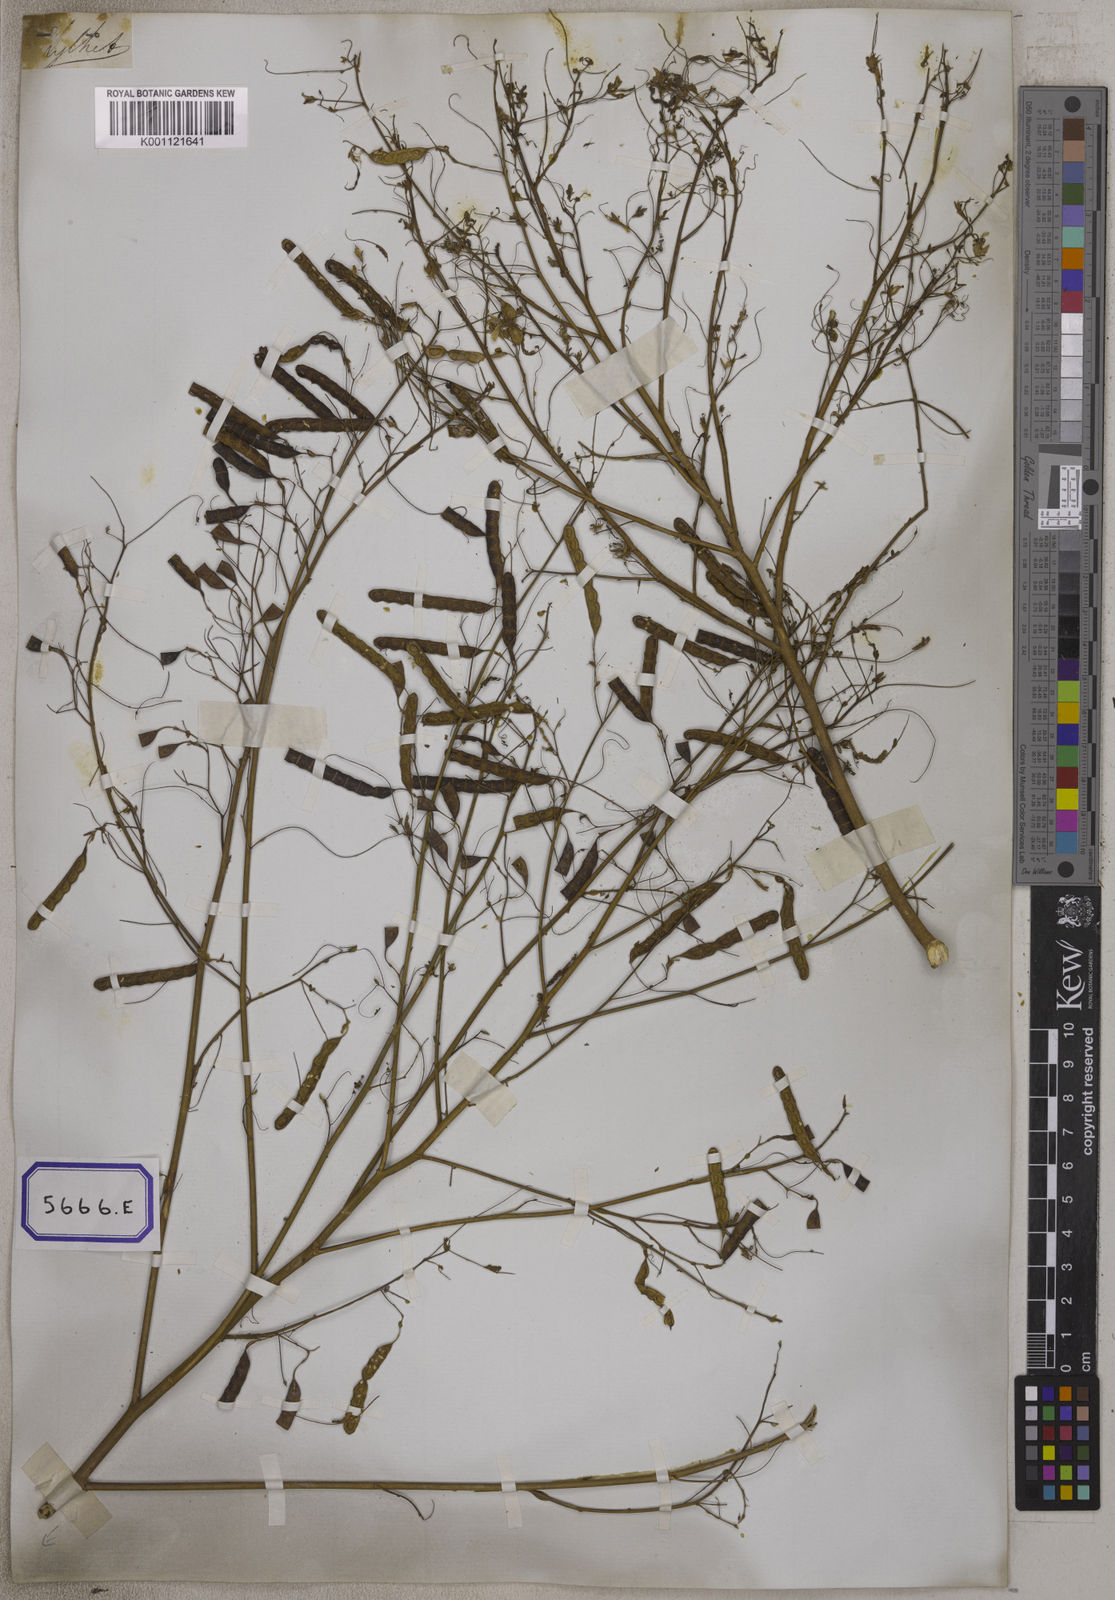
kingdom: Plantae
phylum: Tracheophyta
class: Magnoliopsida
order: Fabales
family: Fabaceae
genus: Aeschynomene
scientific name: Aeschynomene aspera
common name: Pith plant
